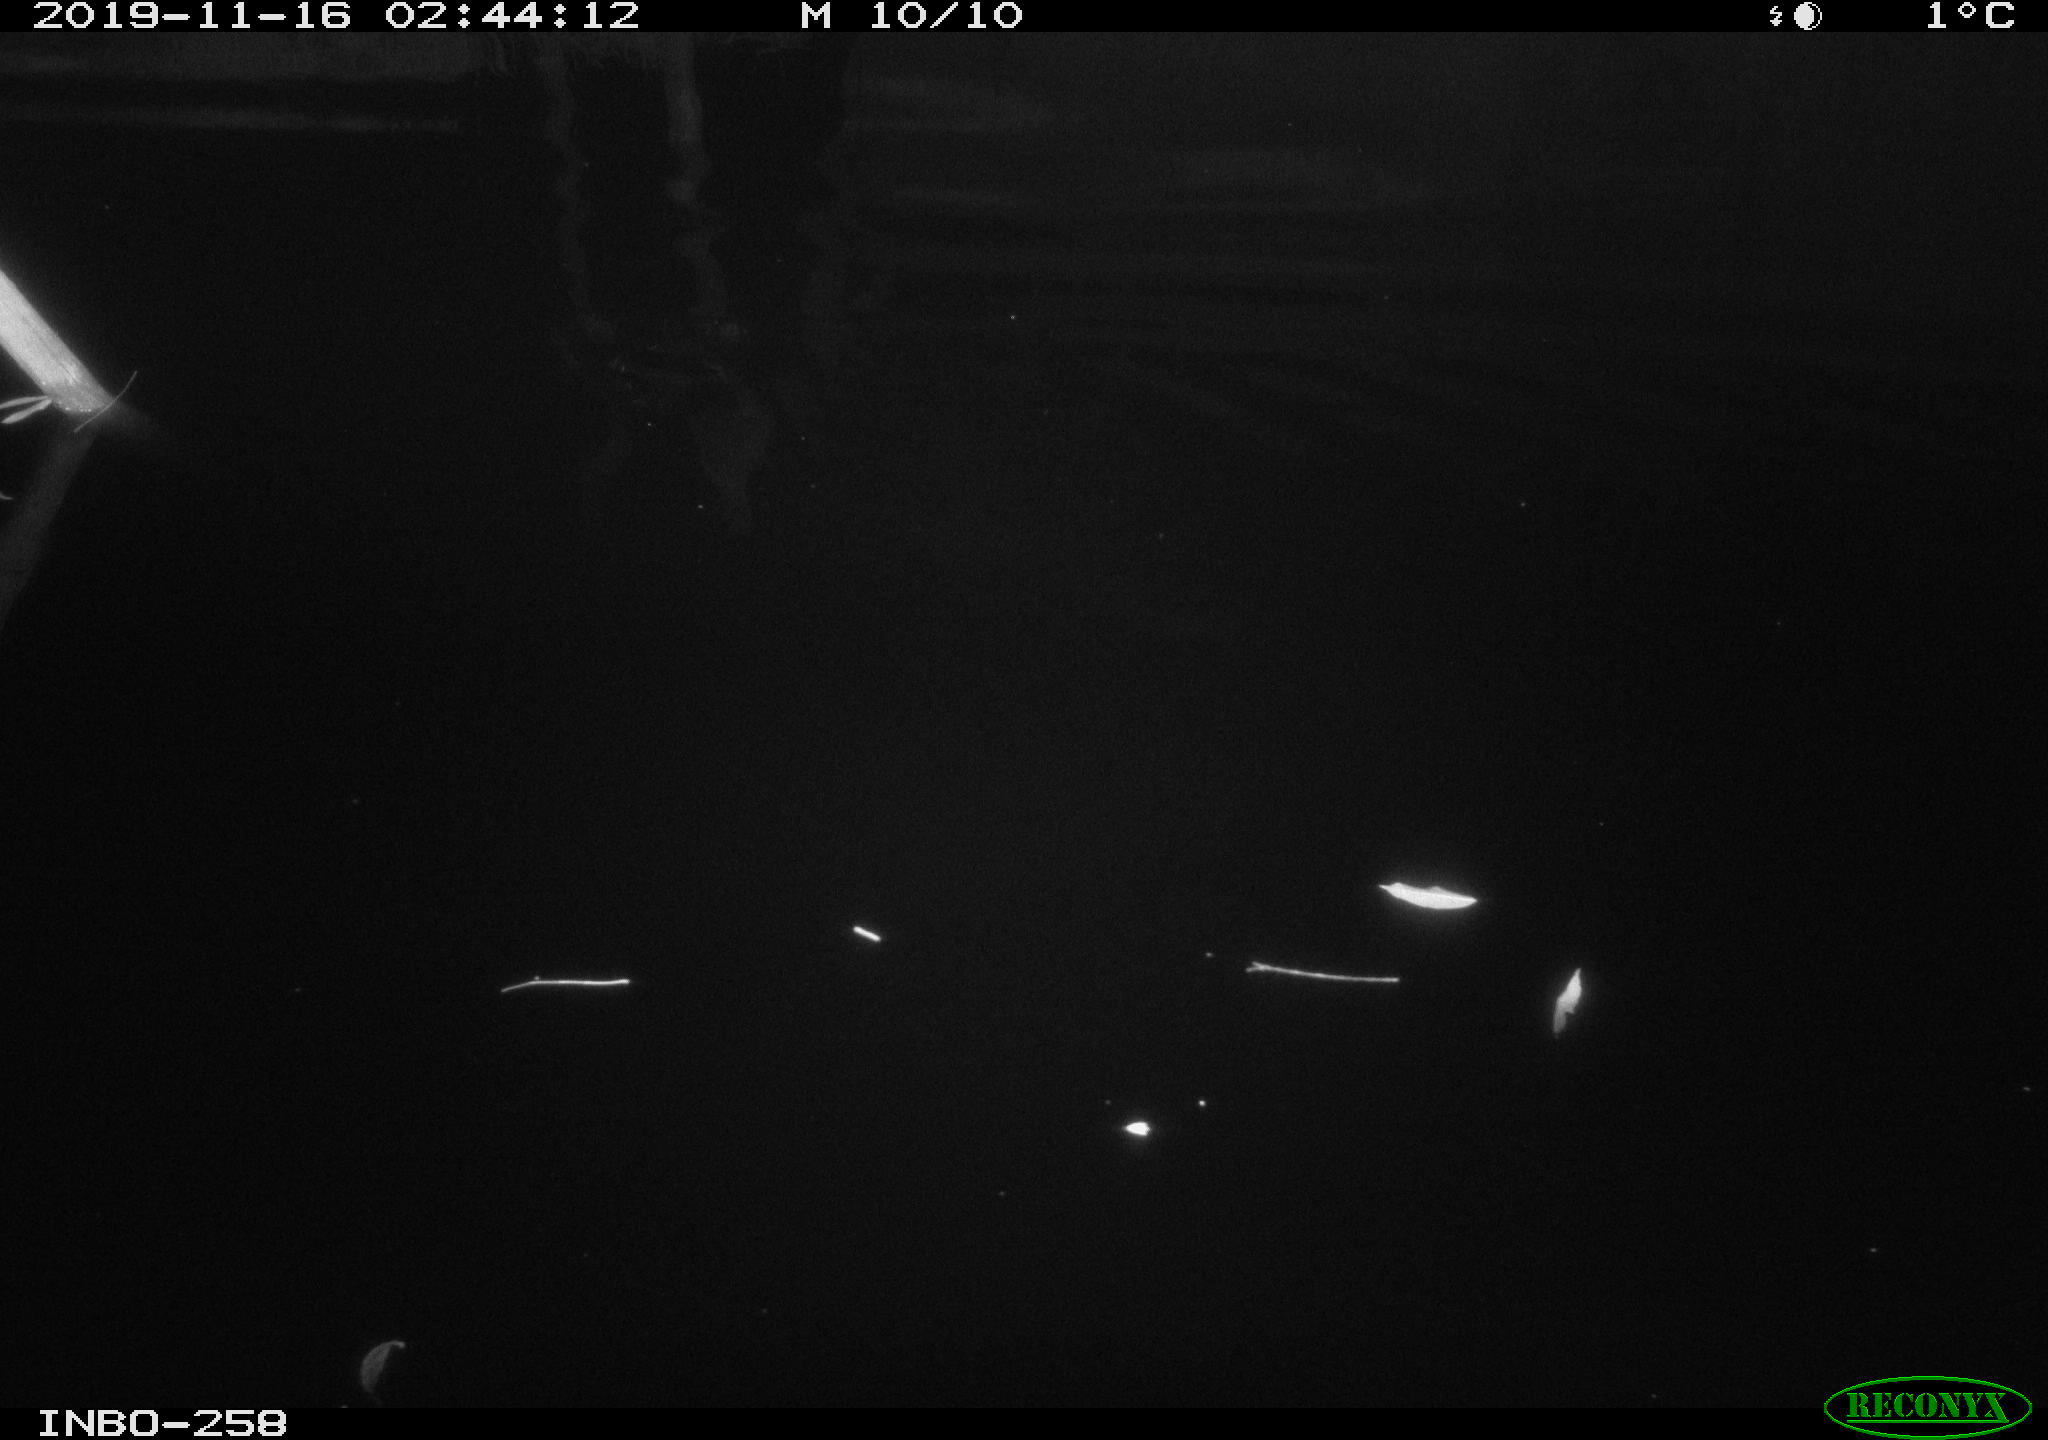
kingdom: Animalia
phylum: Chordata
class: Aves
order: Anseriformes
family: Anatidae
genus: Anas
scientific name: Anas platyrhynchos
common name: Mallard
